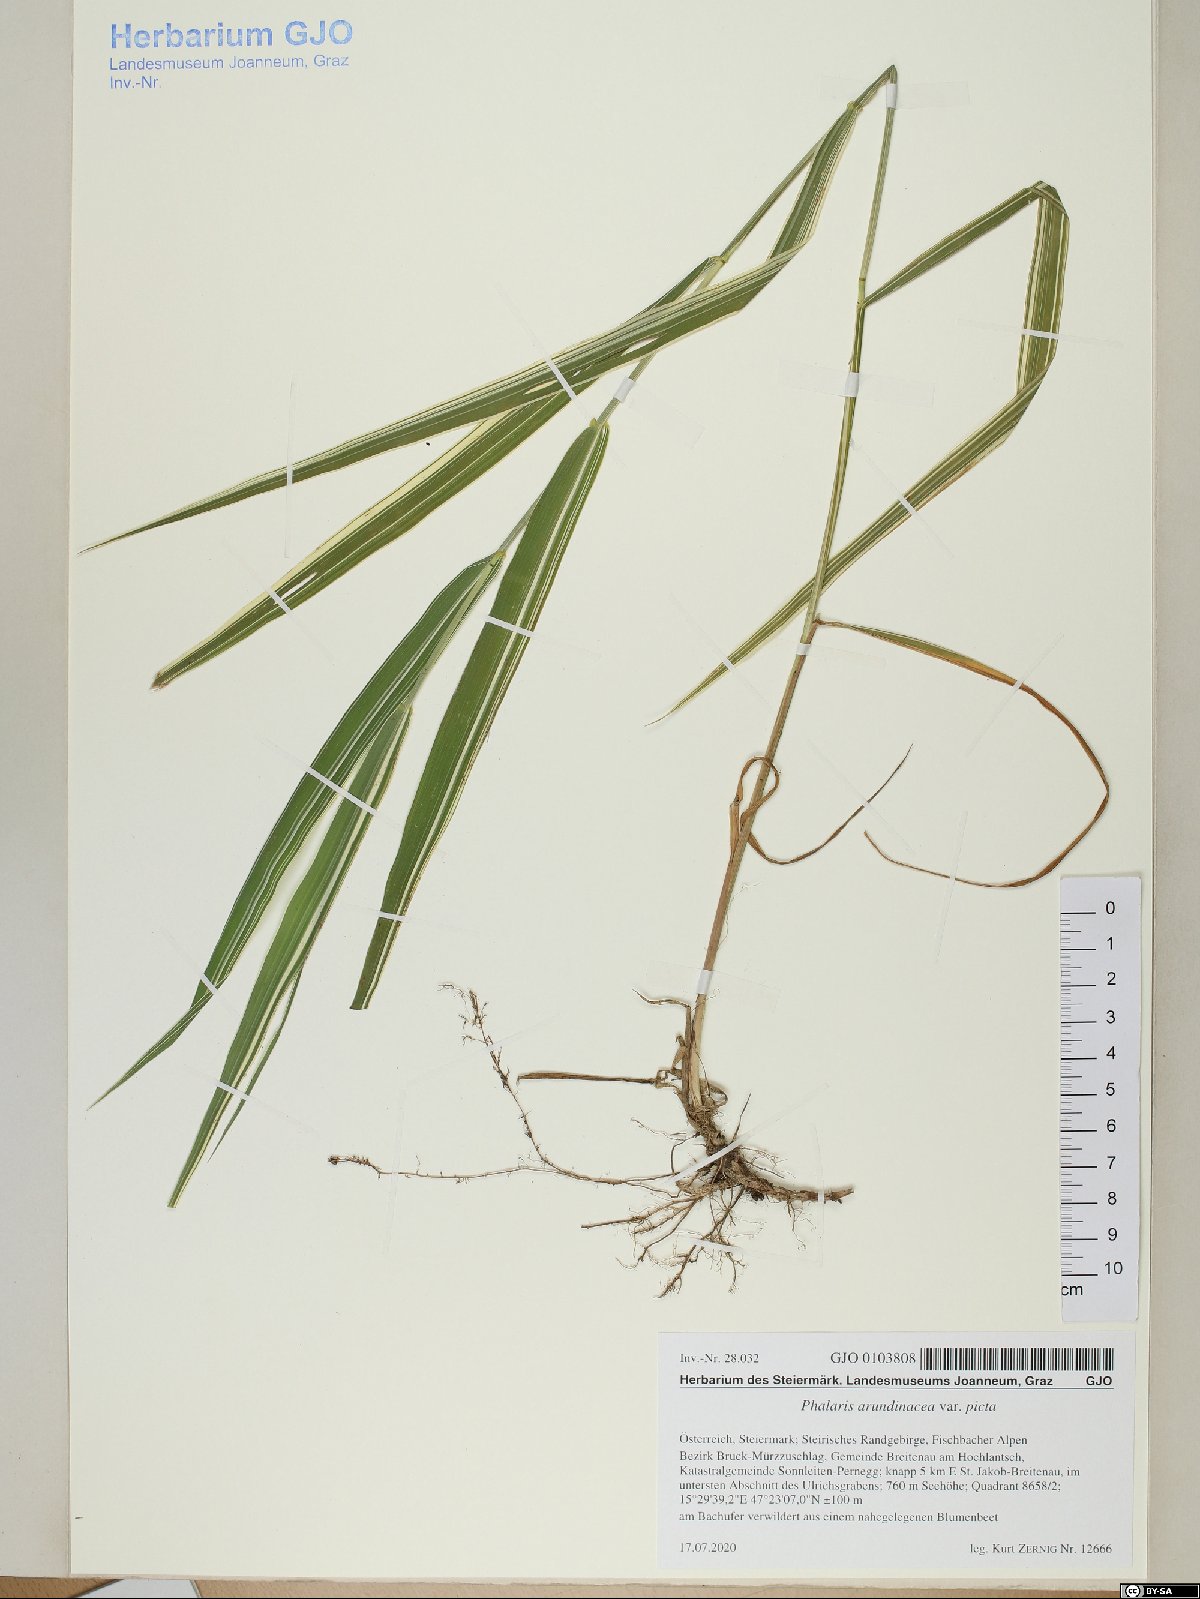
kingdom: Plantae
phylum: Tracheophyta
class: Liliopsida
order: Poales
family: Poaceae
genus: Phalaris
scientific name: Phalaris arundinacea
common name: Reed canary-grass
